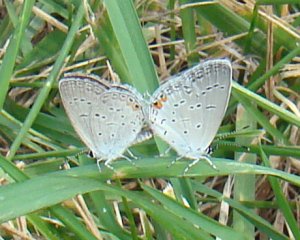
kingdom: Animalia
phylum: Arthropoda
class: Insecta
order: Lepidoptera
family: Lycaenidae
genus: Elkalyce
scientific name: Elkalyce comyntas
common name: Eastern Tailed-Blue
